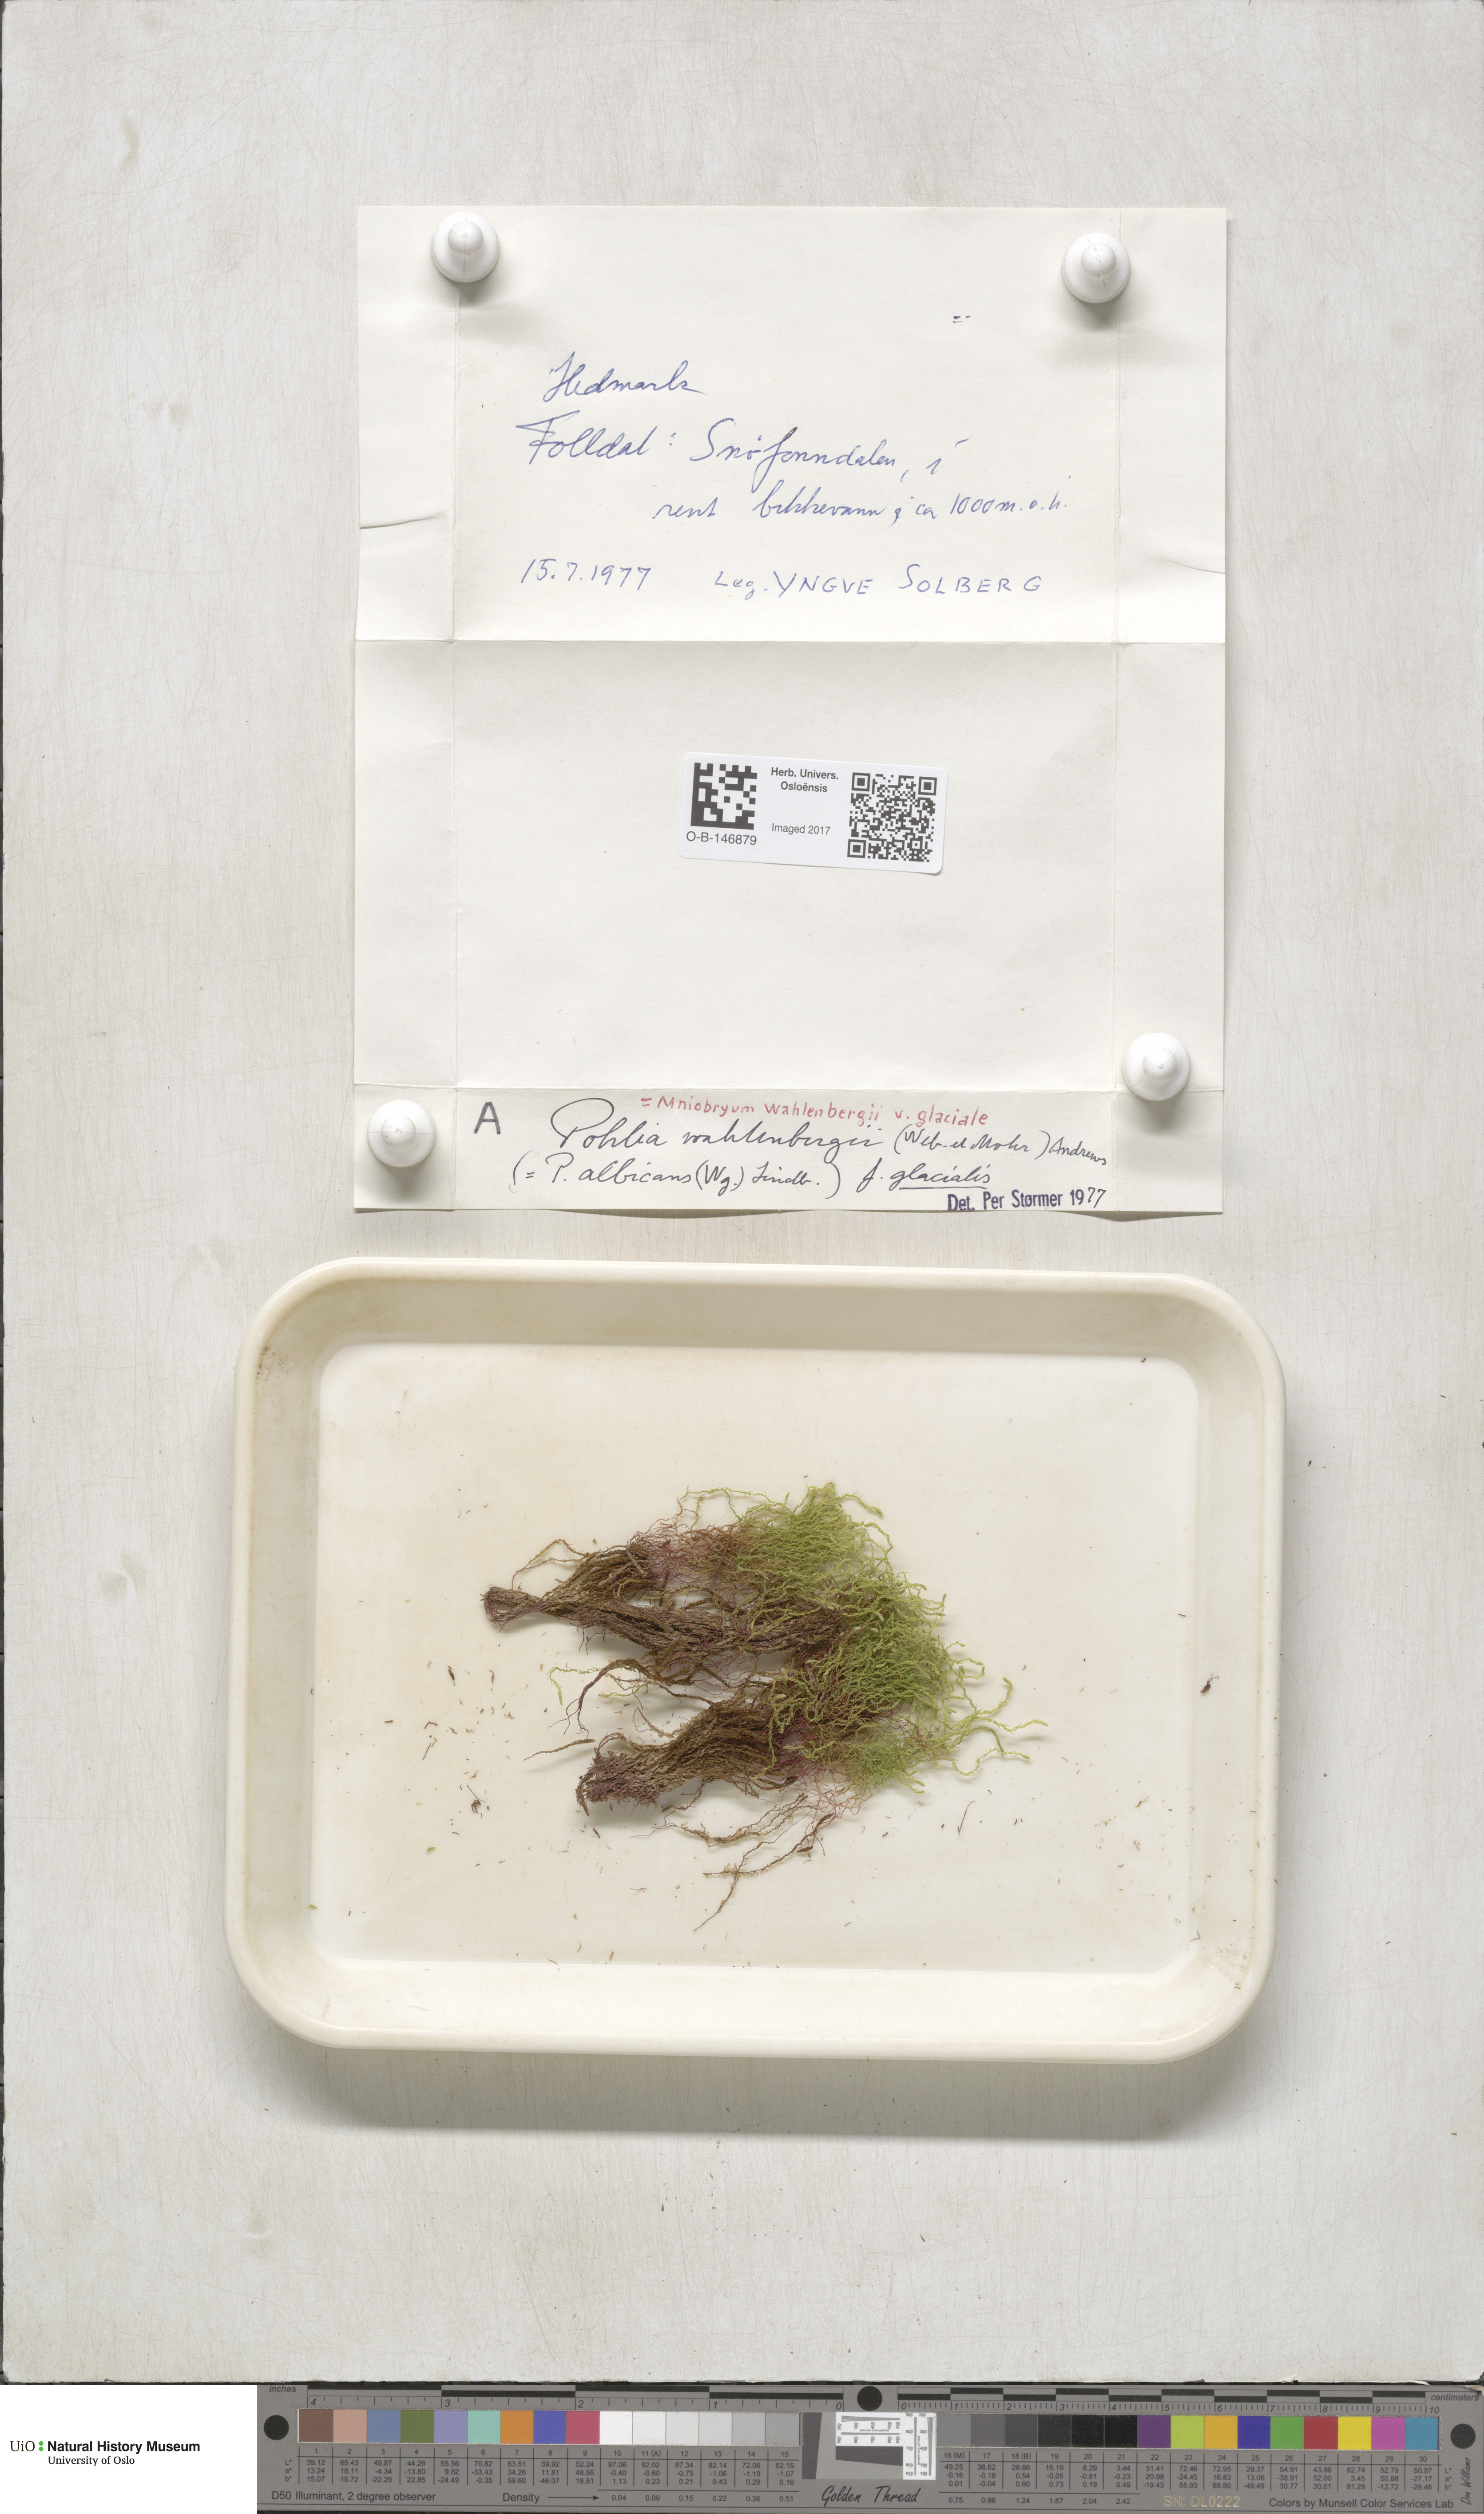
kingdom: Plantae
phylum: Bryophyta
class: Bryopsida
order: Bryales
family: Mniaceae
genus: Pohlia
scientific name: Pohlia wahlenbergii
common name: Wahlenberg's nodding moss
